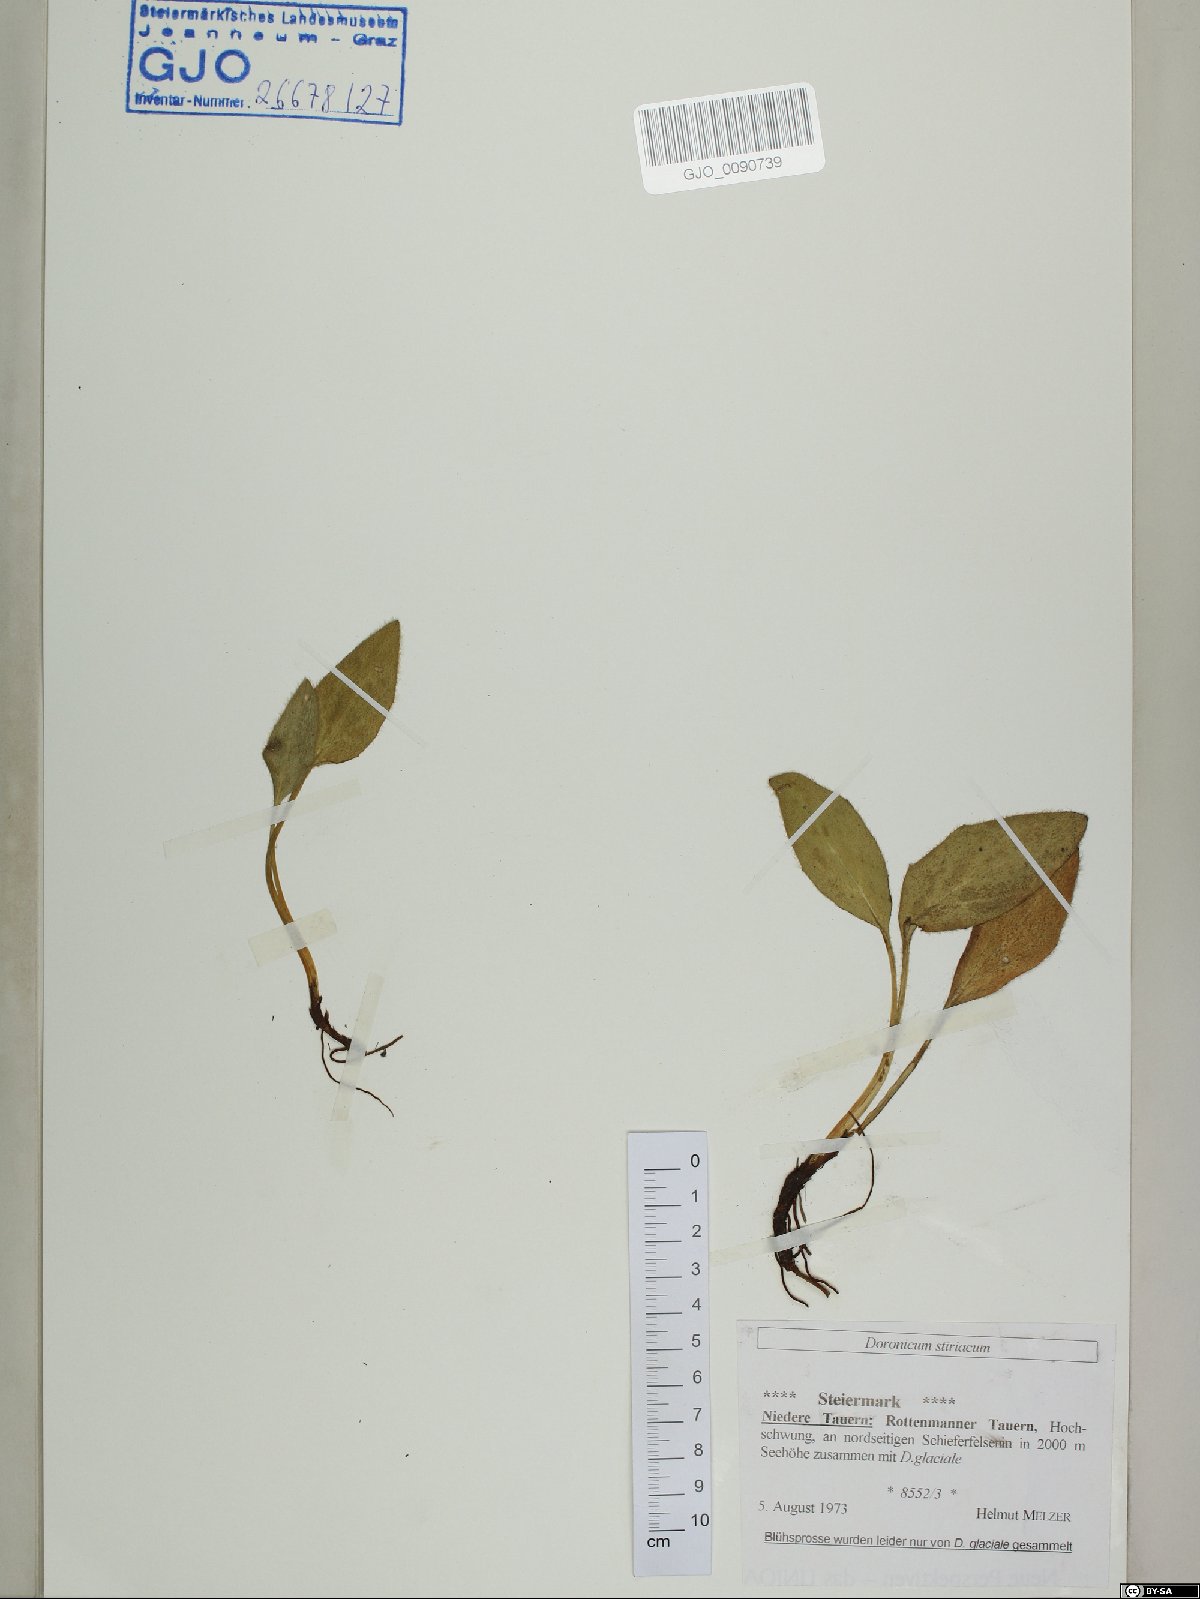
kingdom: Plantae
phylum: Tracheophyta
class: Magnoliopsida
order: Asterales
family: Asteraceae
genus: Doronicum
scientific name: Doronicum clusii
